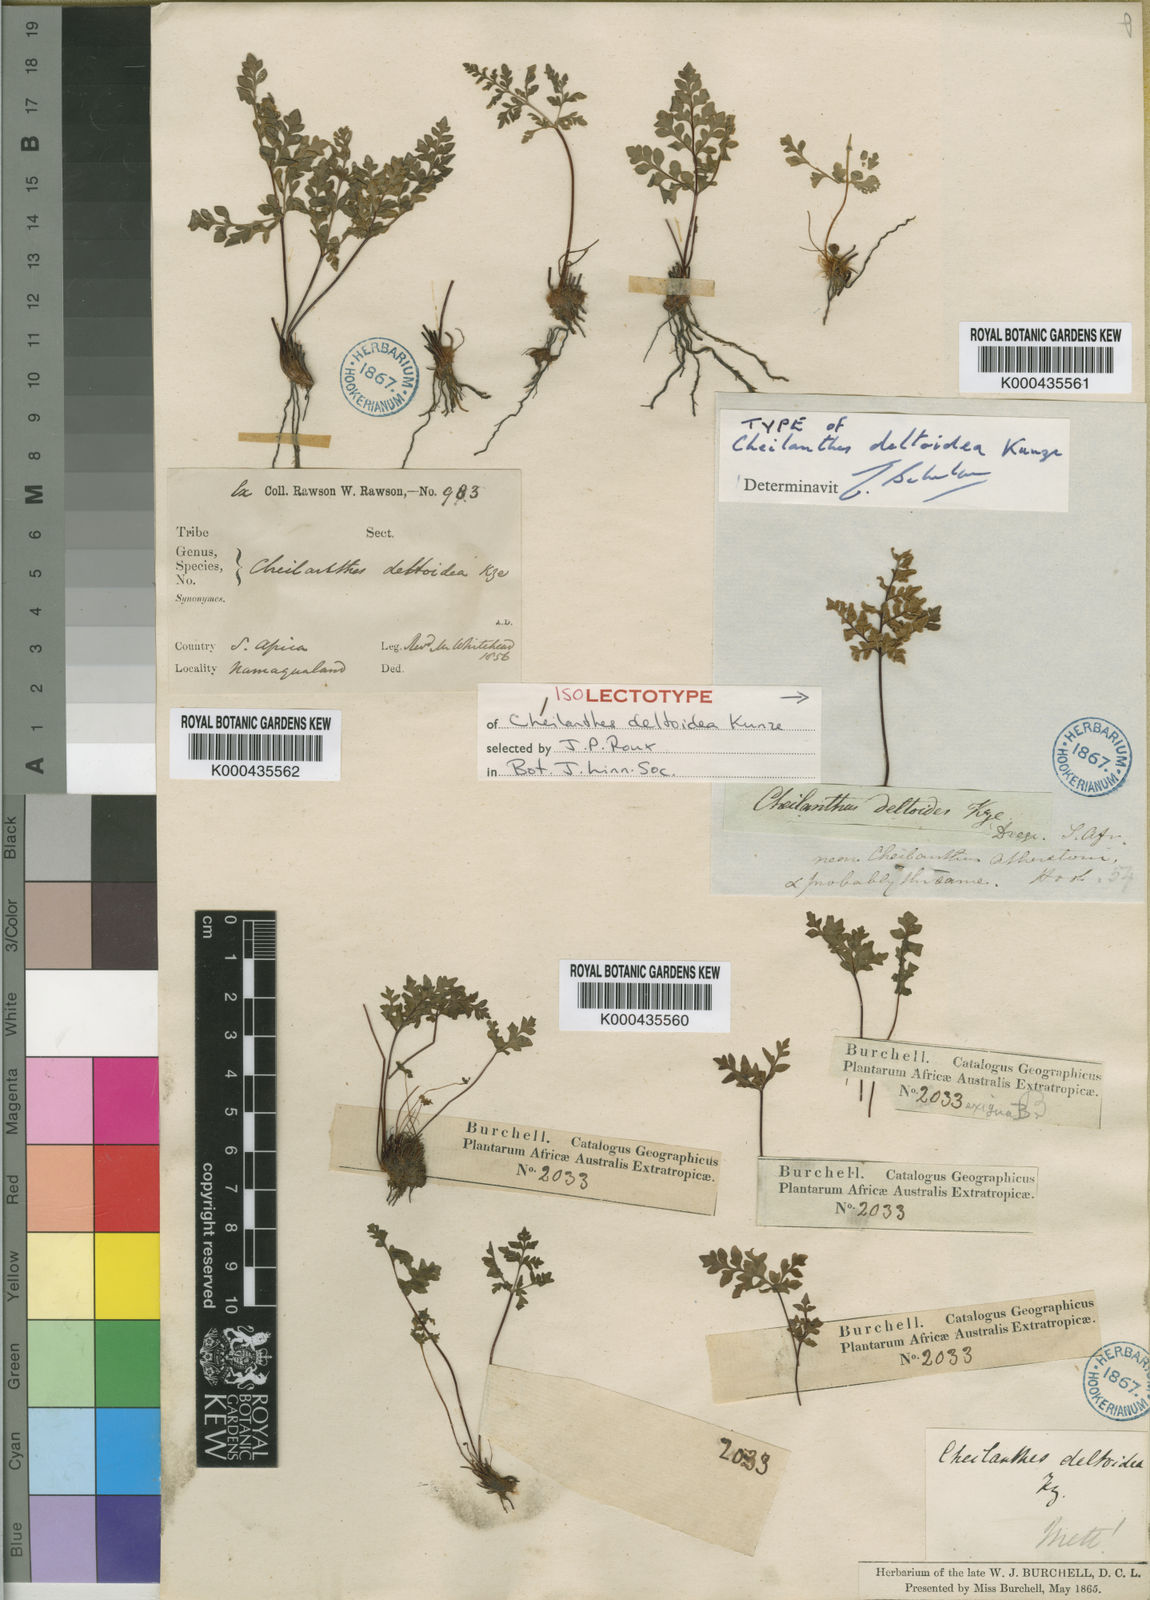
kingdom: Plantae
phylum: Tracheophyta
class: Polypodiopsida
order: Polypodiales
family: Pteridaceae
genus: Cheilanthes
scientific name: Cheilanthes deltoidea
